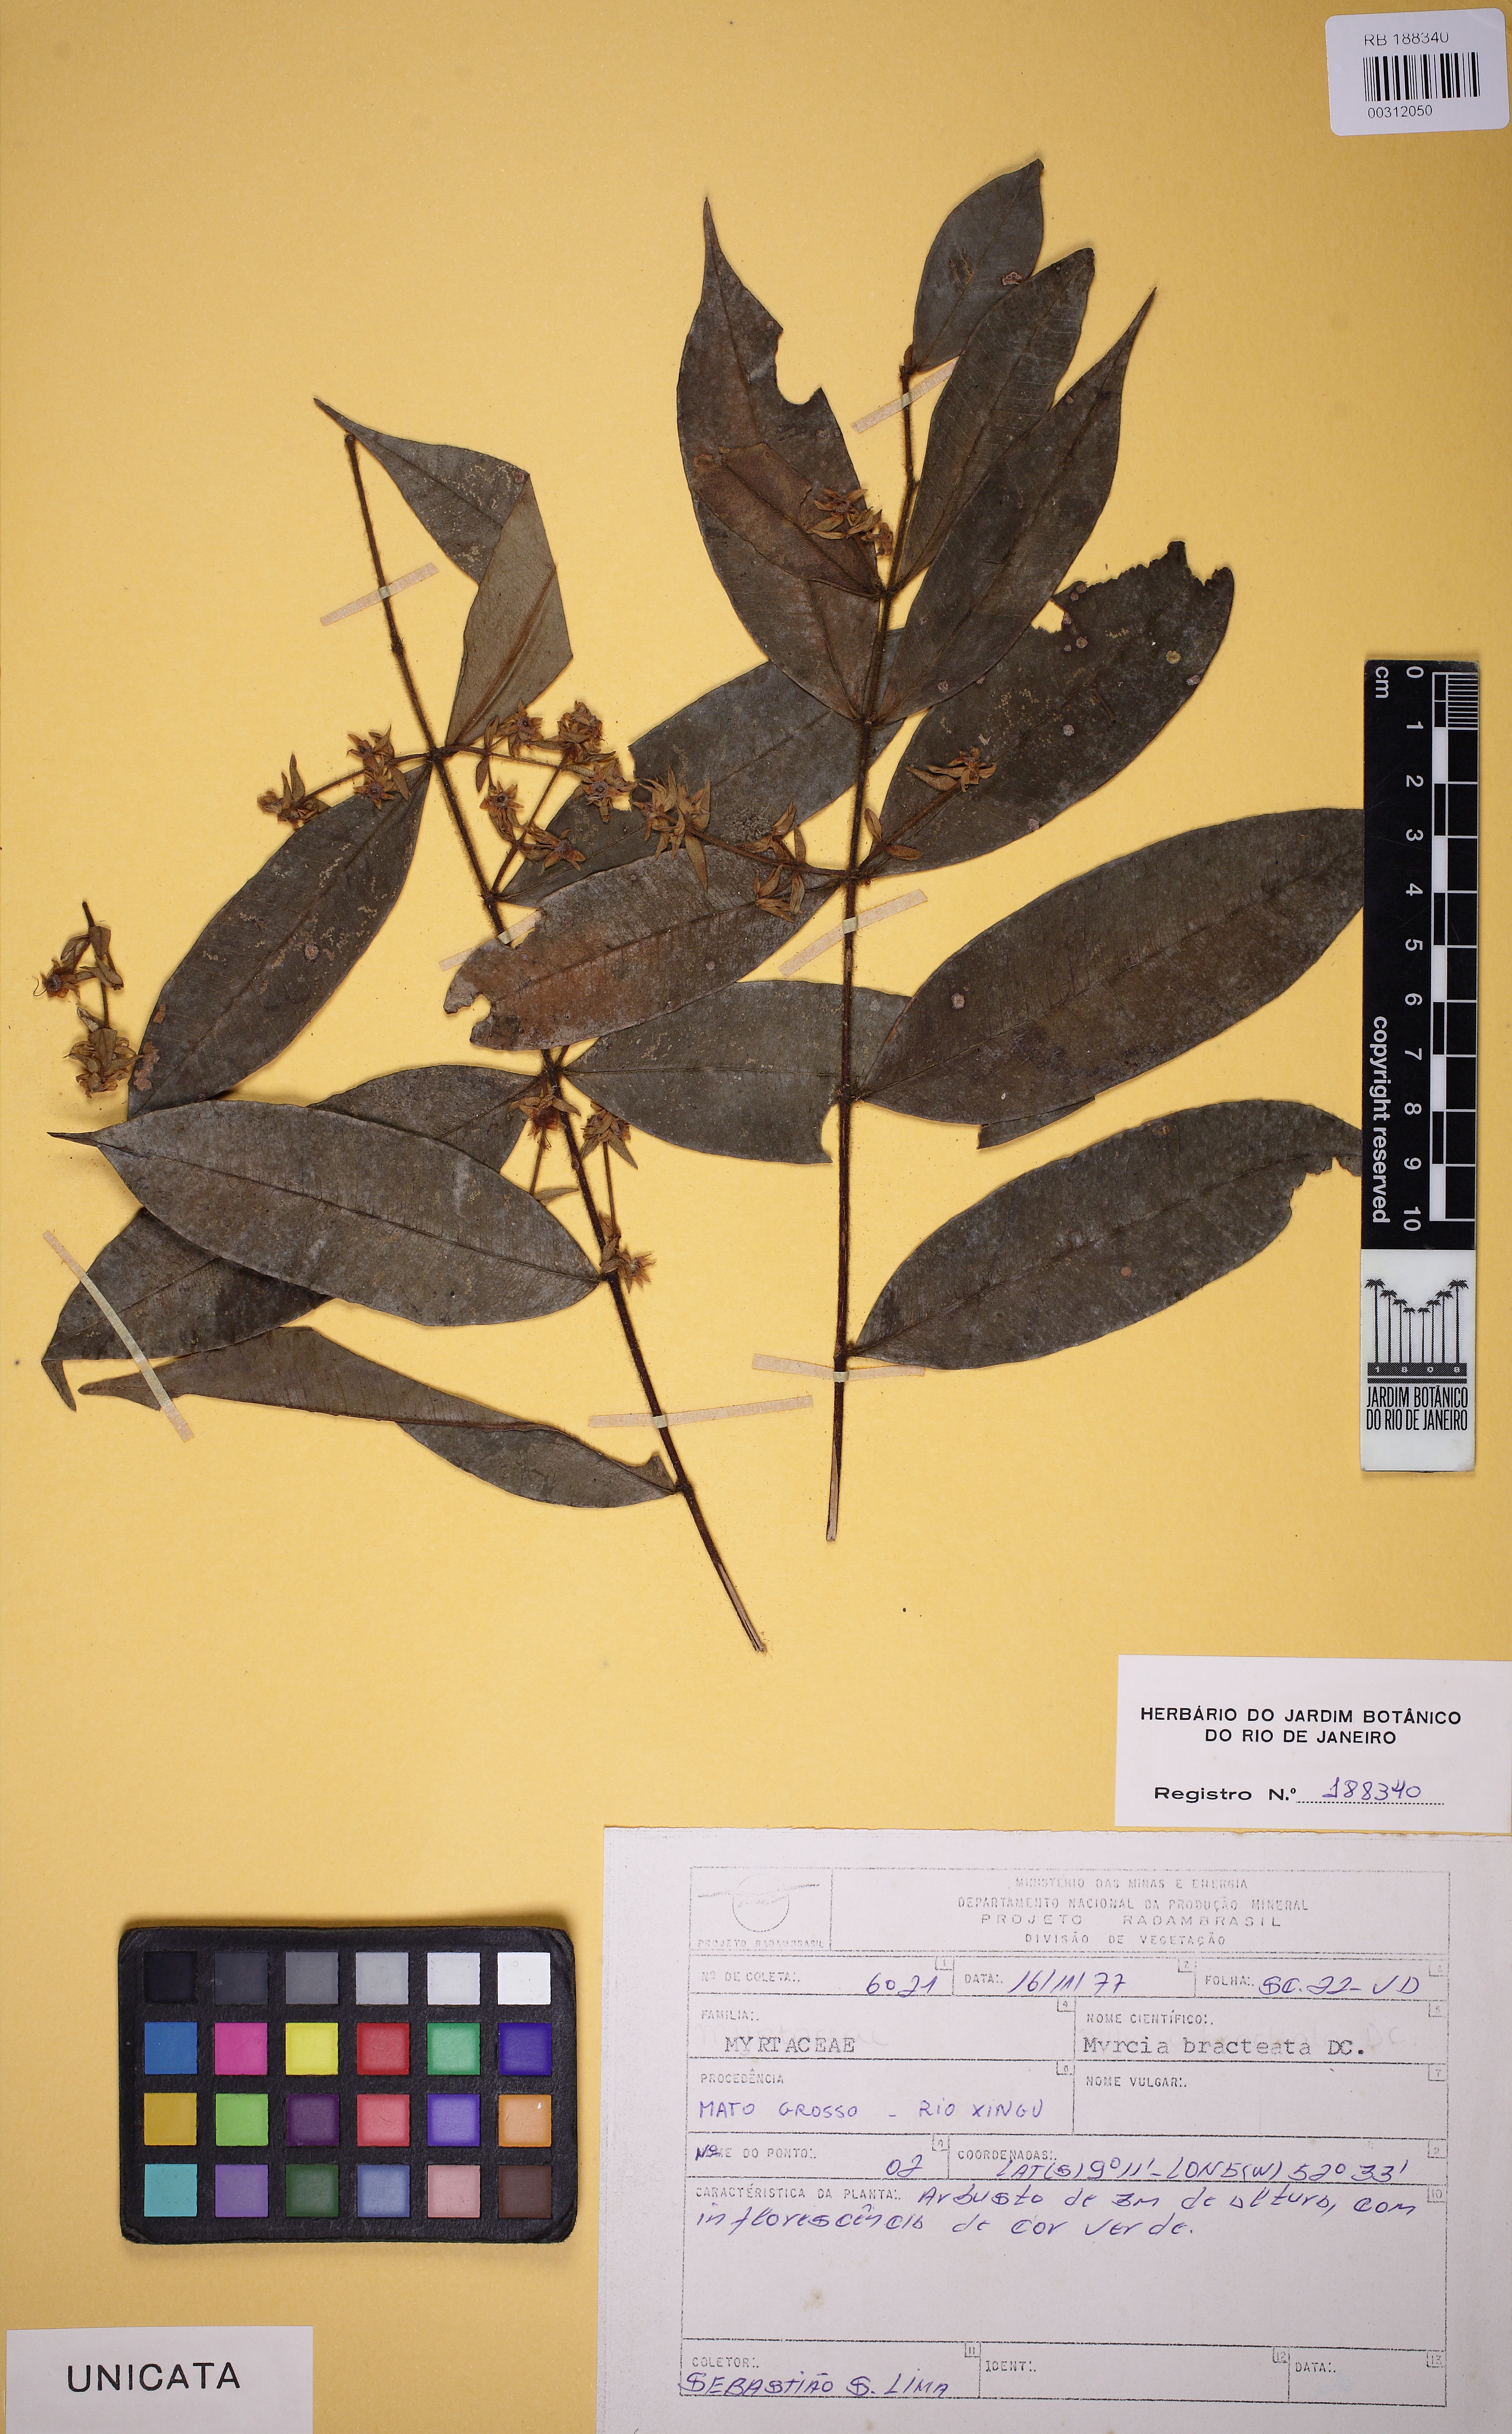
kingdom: Plantae
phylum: Tracheophyta
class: Magnoliopsida
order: Myrtales
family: Myrtaceae
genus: Myrcia
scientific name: Myrcia bracteata
